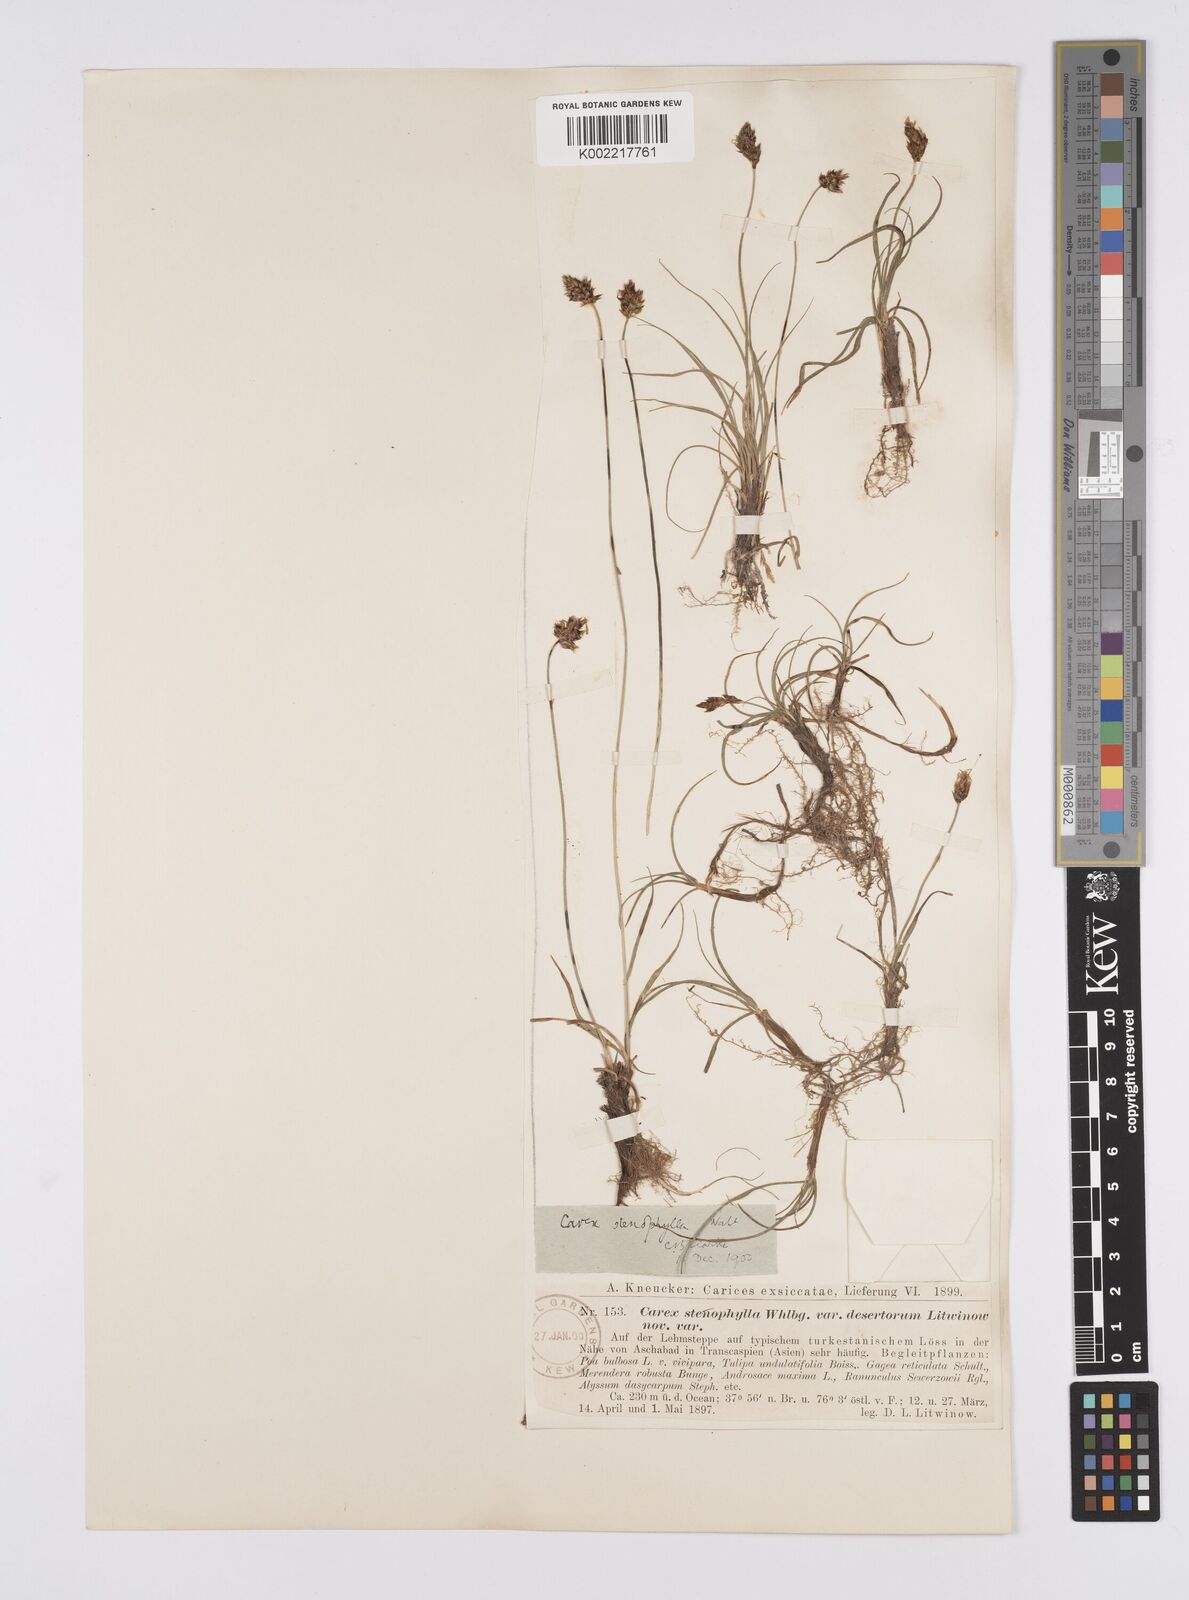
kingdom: Plantae
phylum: Tracheophyta
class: Liliopsida
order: Poales
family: Cyperaceae
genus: Carex
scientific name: Carex stenophylla
